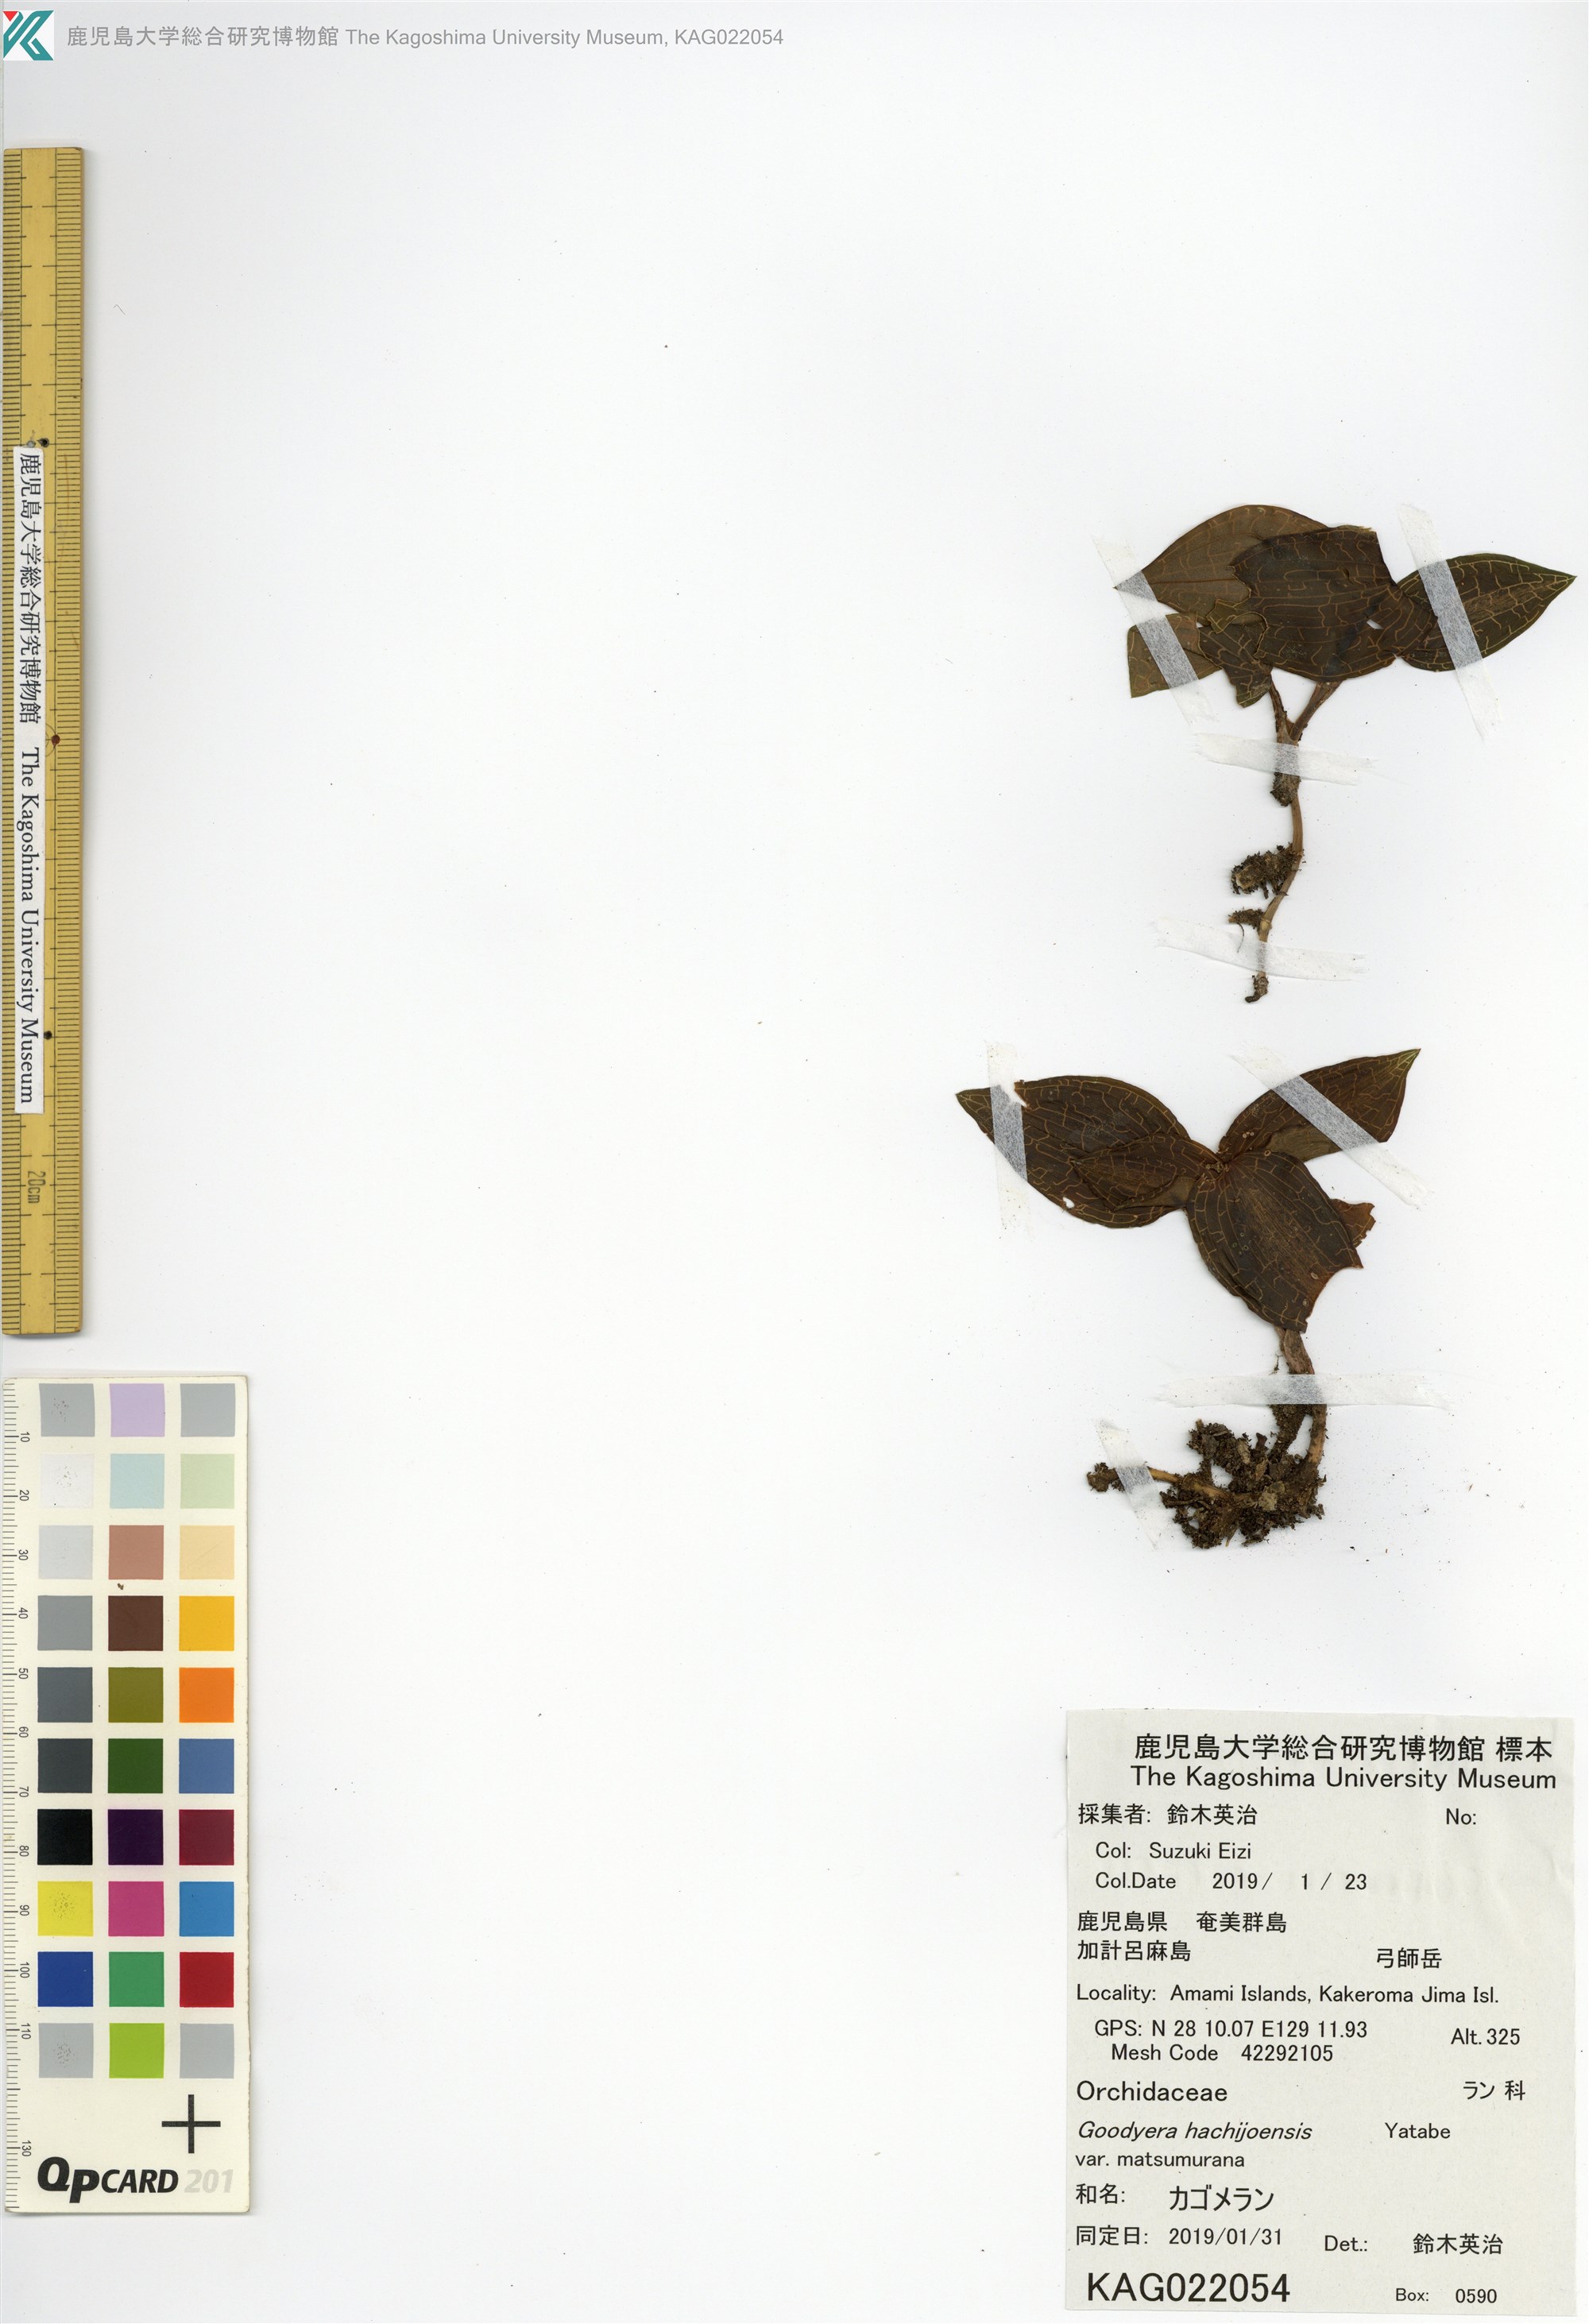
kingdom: Plantae
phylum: Tracheophyta
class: Liliopsida
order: Asparagales
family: Orchidaceae
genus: Goodyera
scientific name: Goodyera hachijoensis
